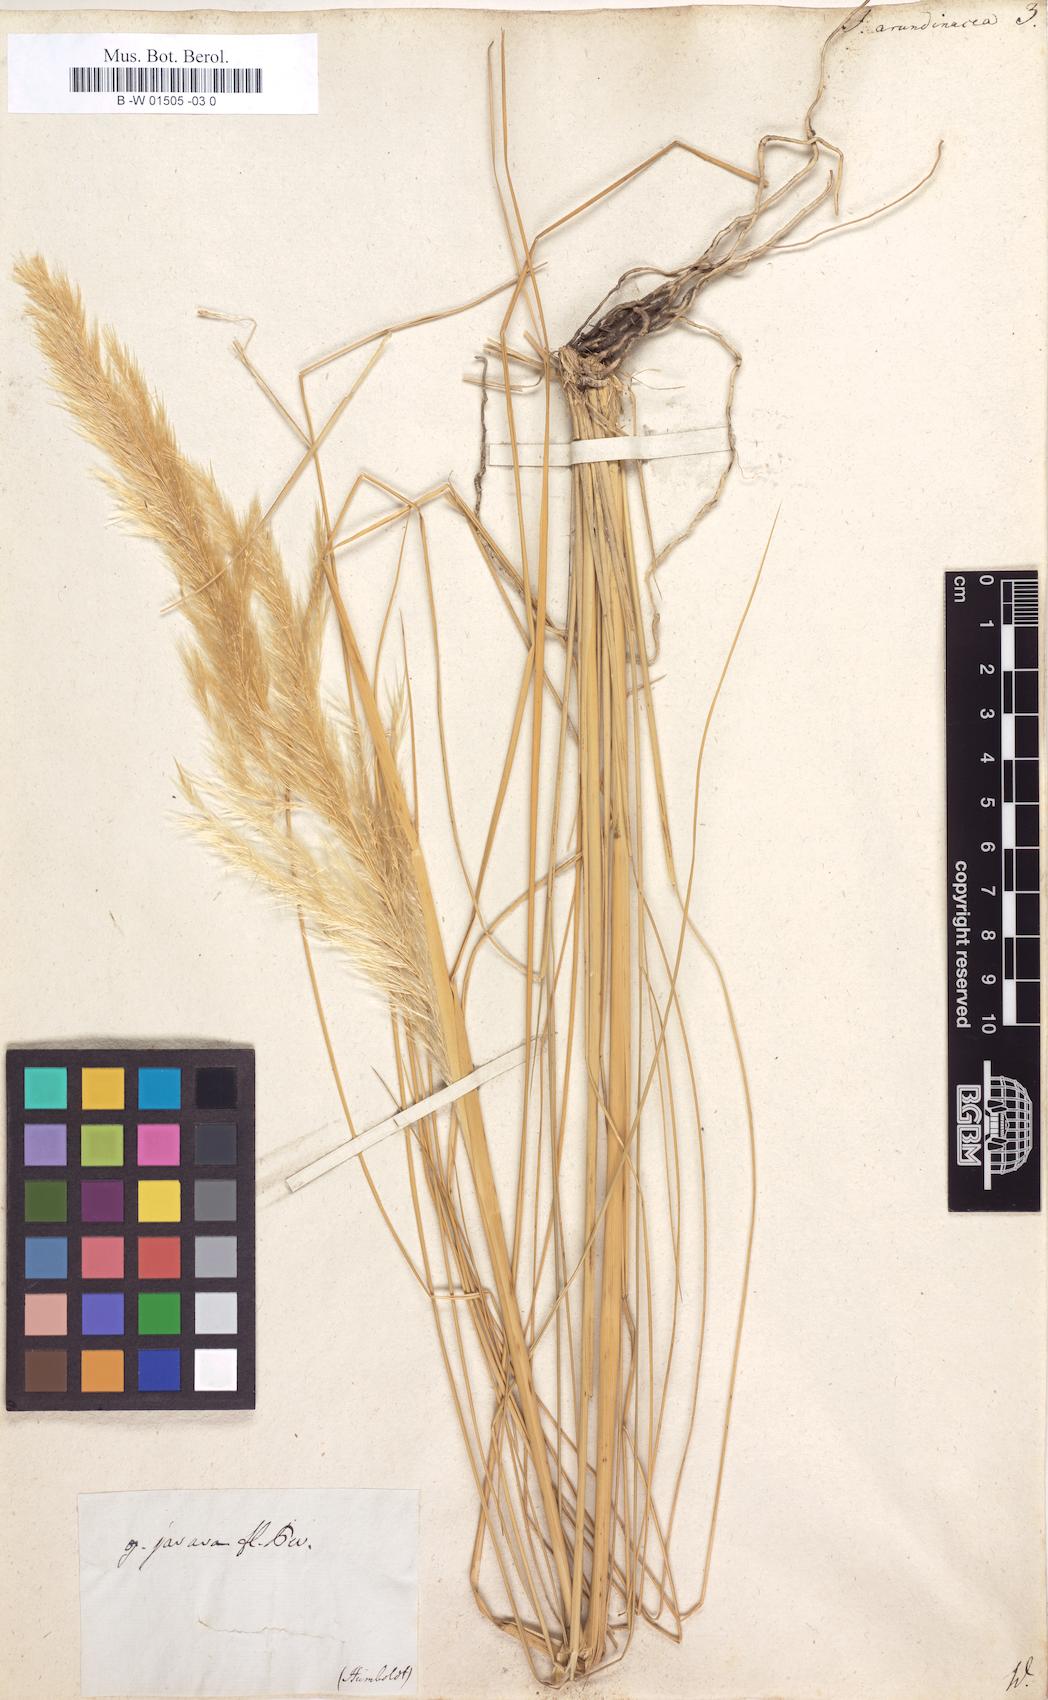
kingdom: Plantae
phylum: Tracheophyta
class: Liliopsida
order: Poales
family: Poaceae
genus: Jarava
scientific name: Jarava ichu
